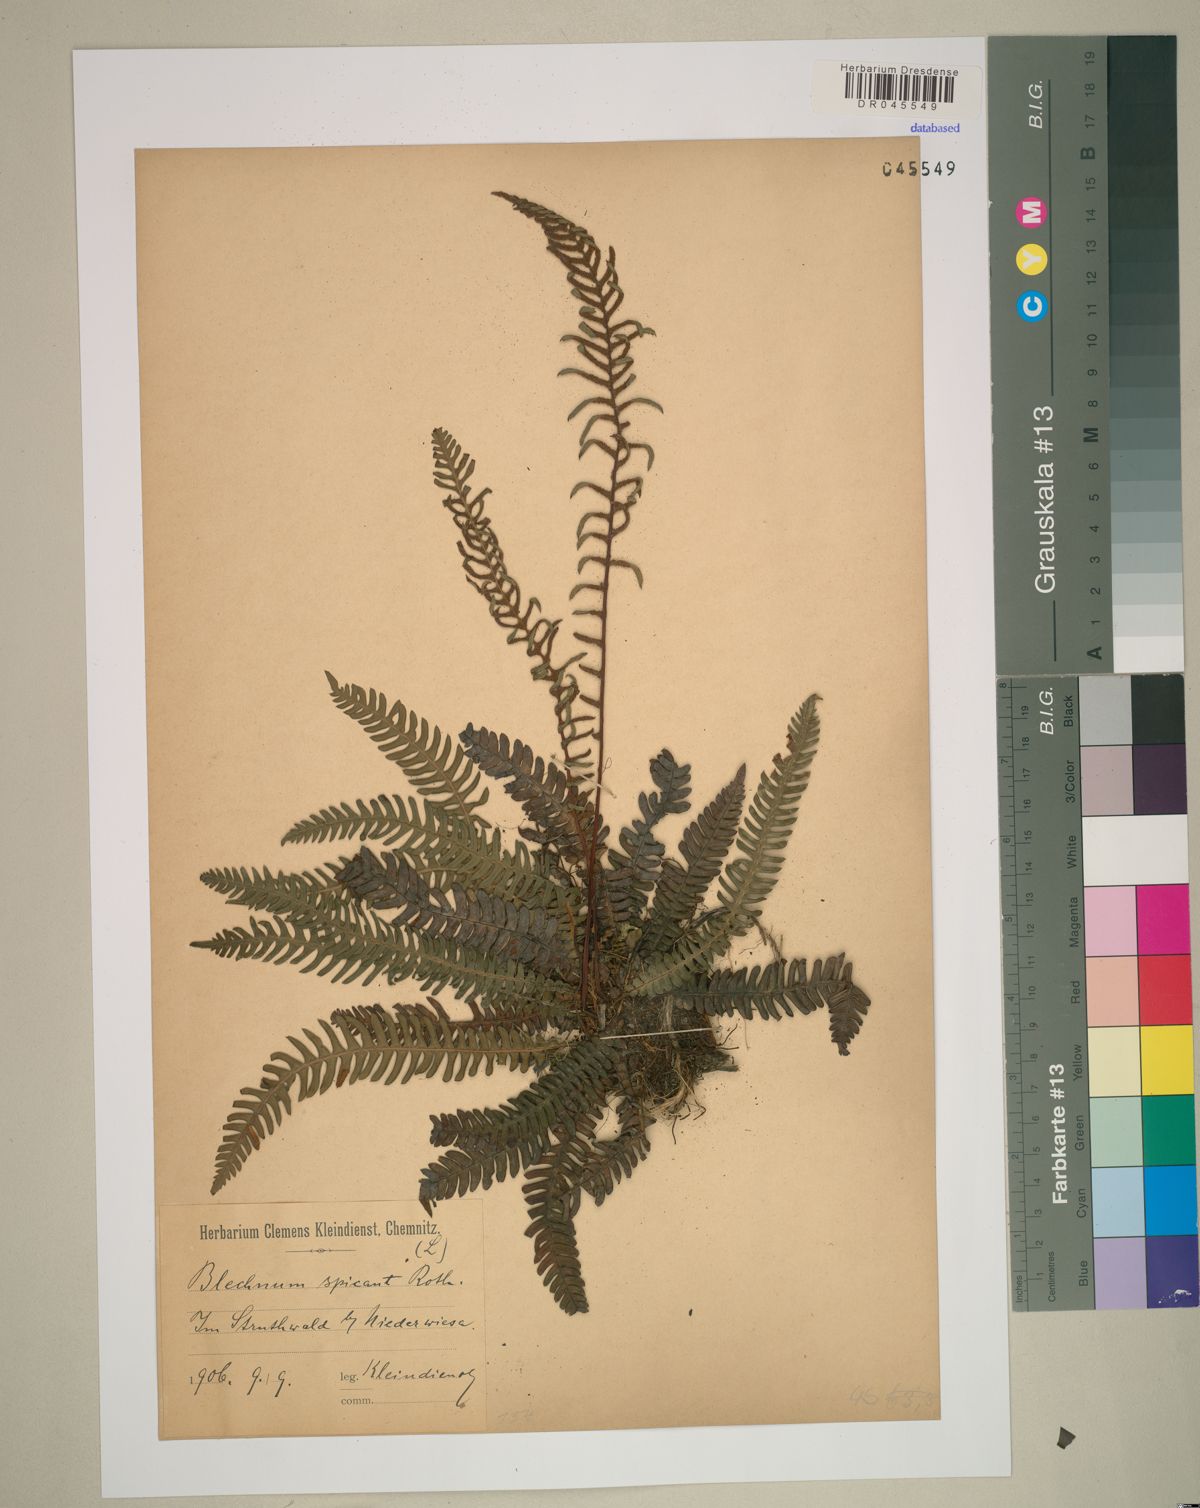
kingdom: Plantae
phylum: Tracheophyta
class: Polypodiopsida
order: Polypodiales
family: Blechnaceae
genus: Struthiopteris
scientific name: Struthiopteris spicant
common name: Deer fern
